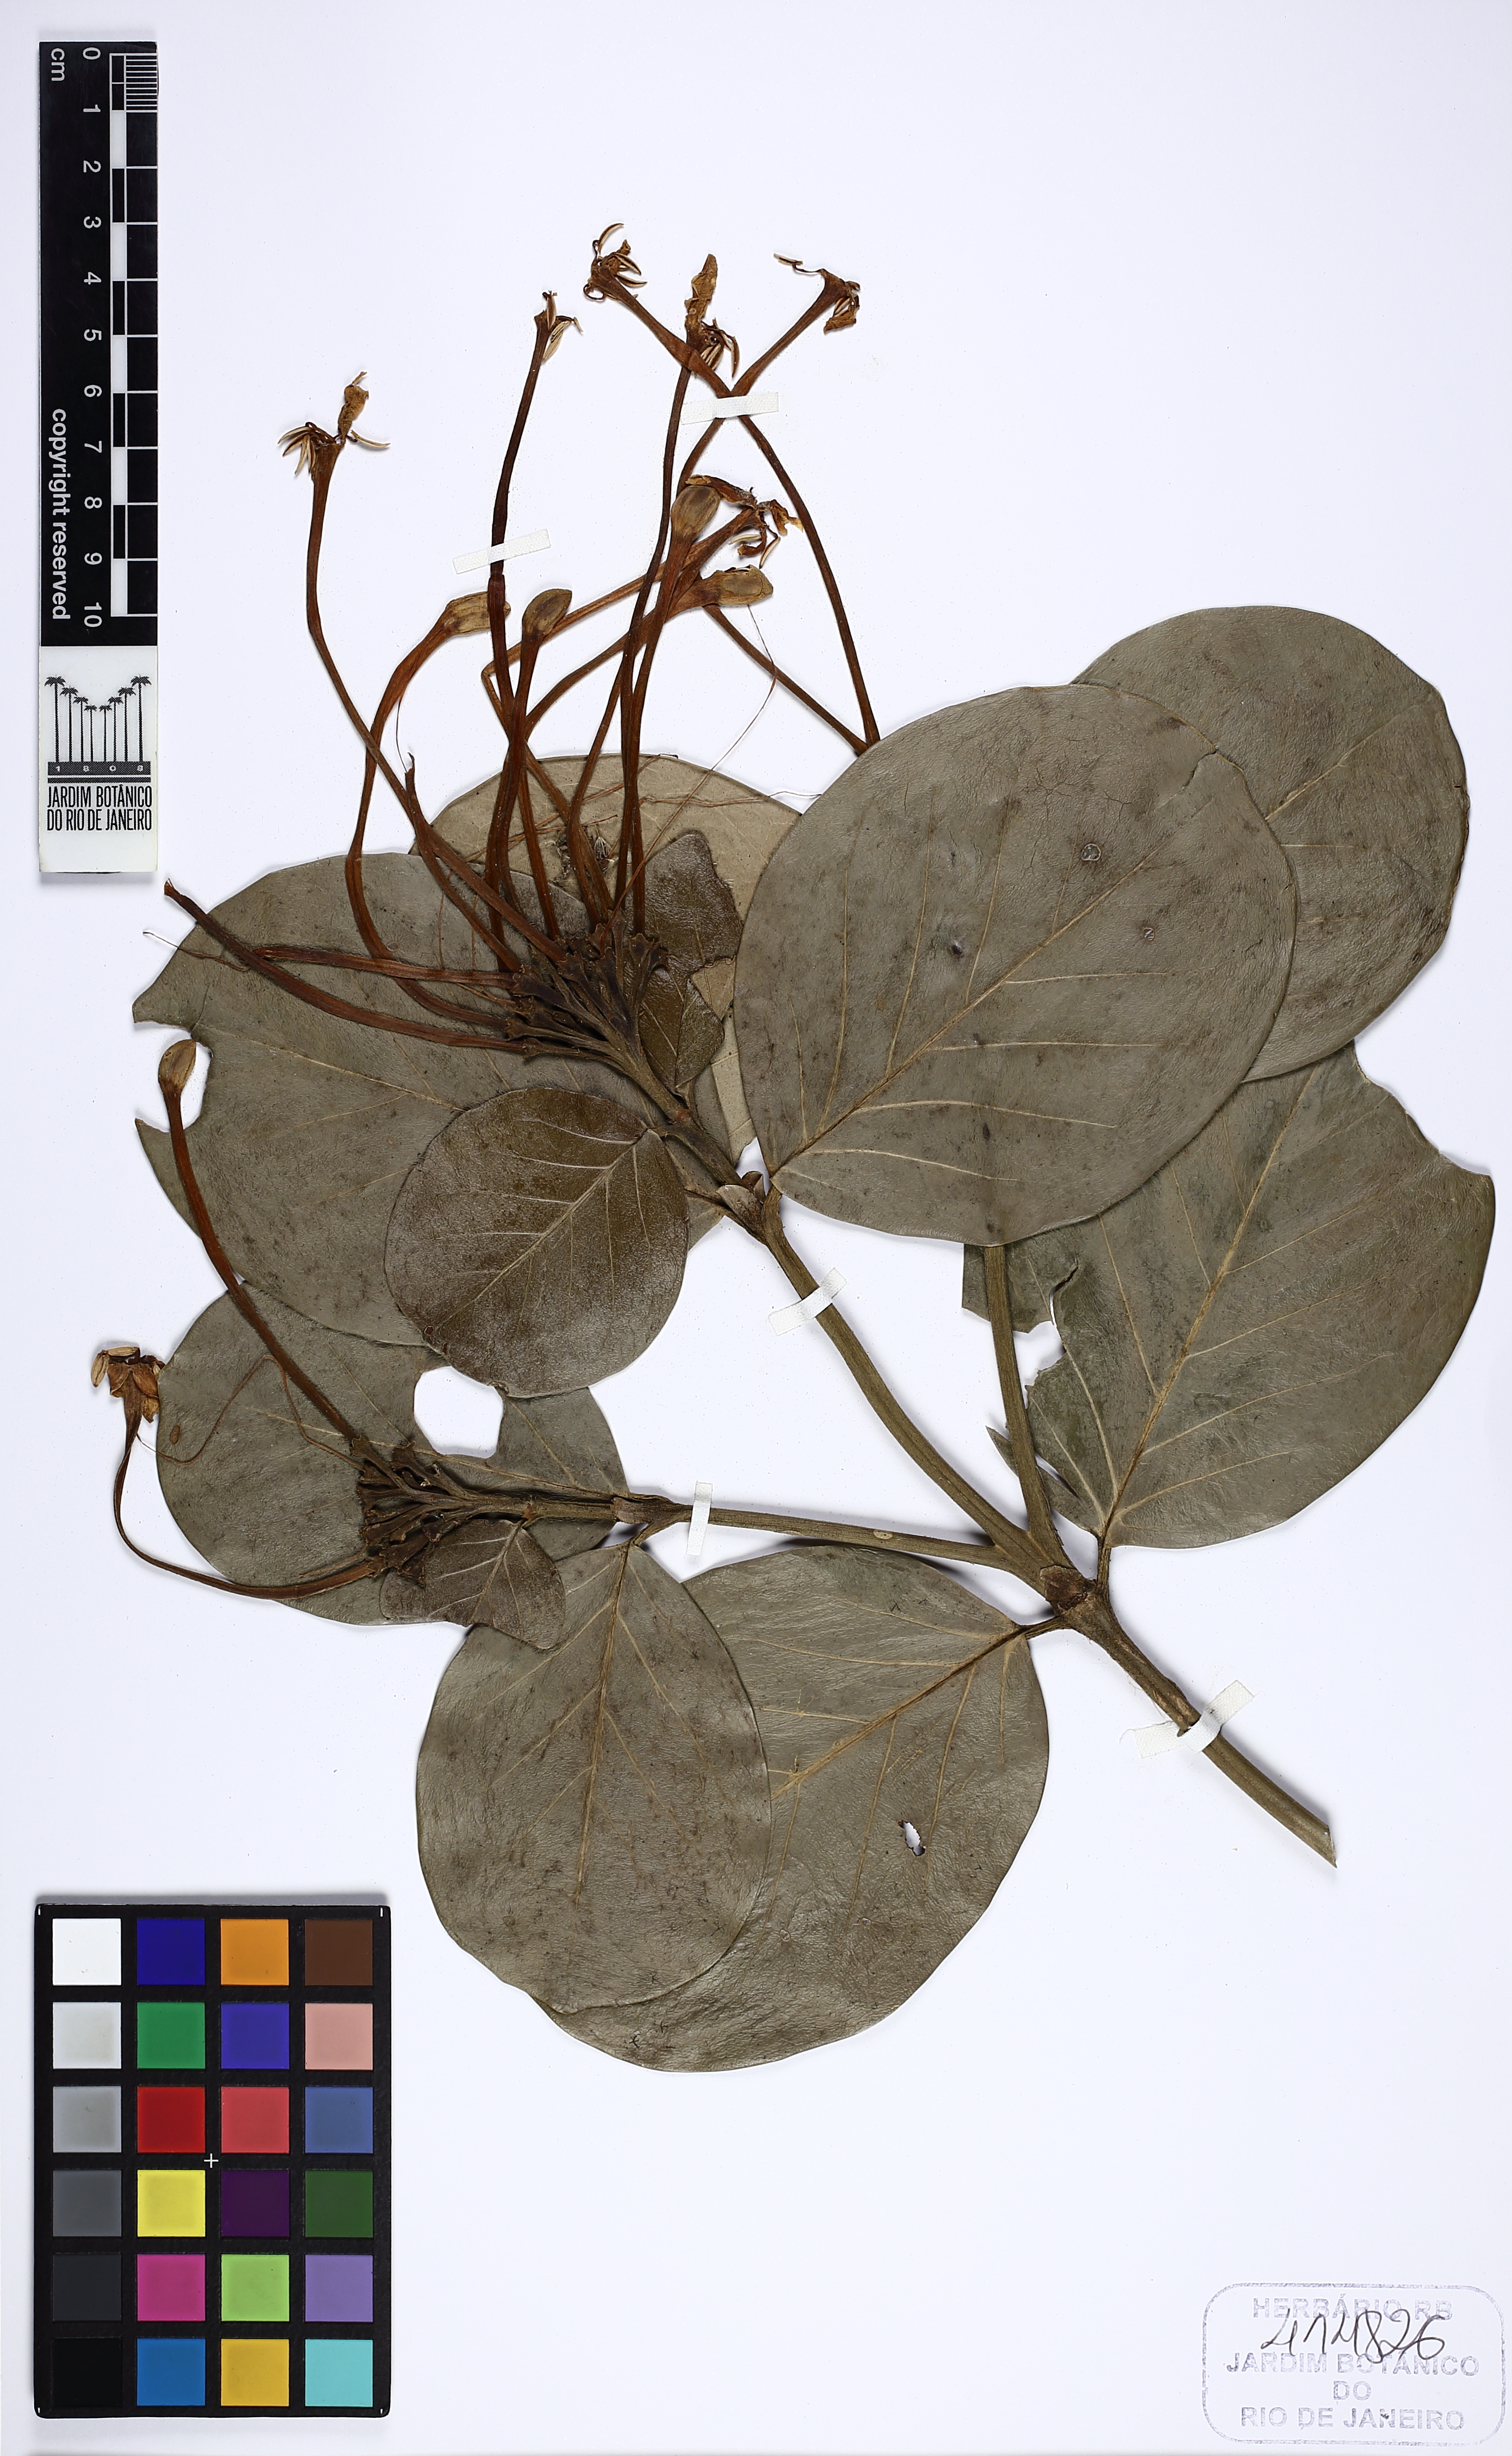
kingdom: Plantae
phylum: Tracheophyta
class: Magnoliopsida
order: Gentianales
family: Rubiaceae
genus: Posoqueria
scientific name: Posoqueria
